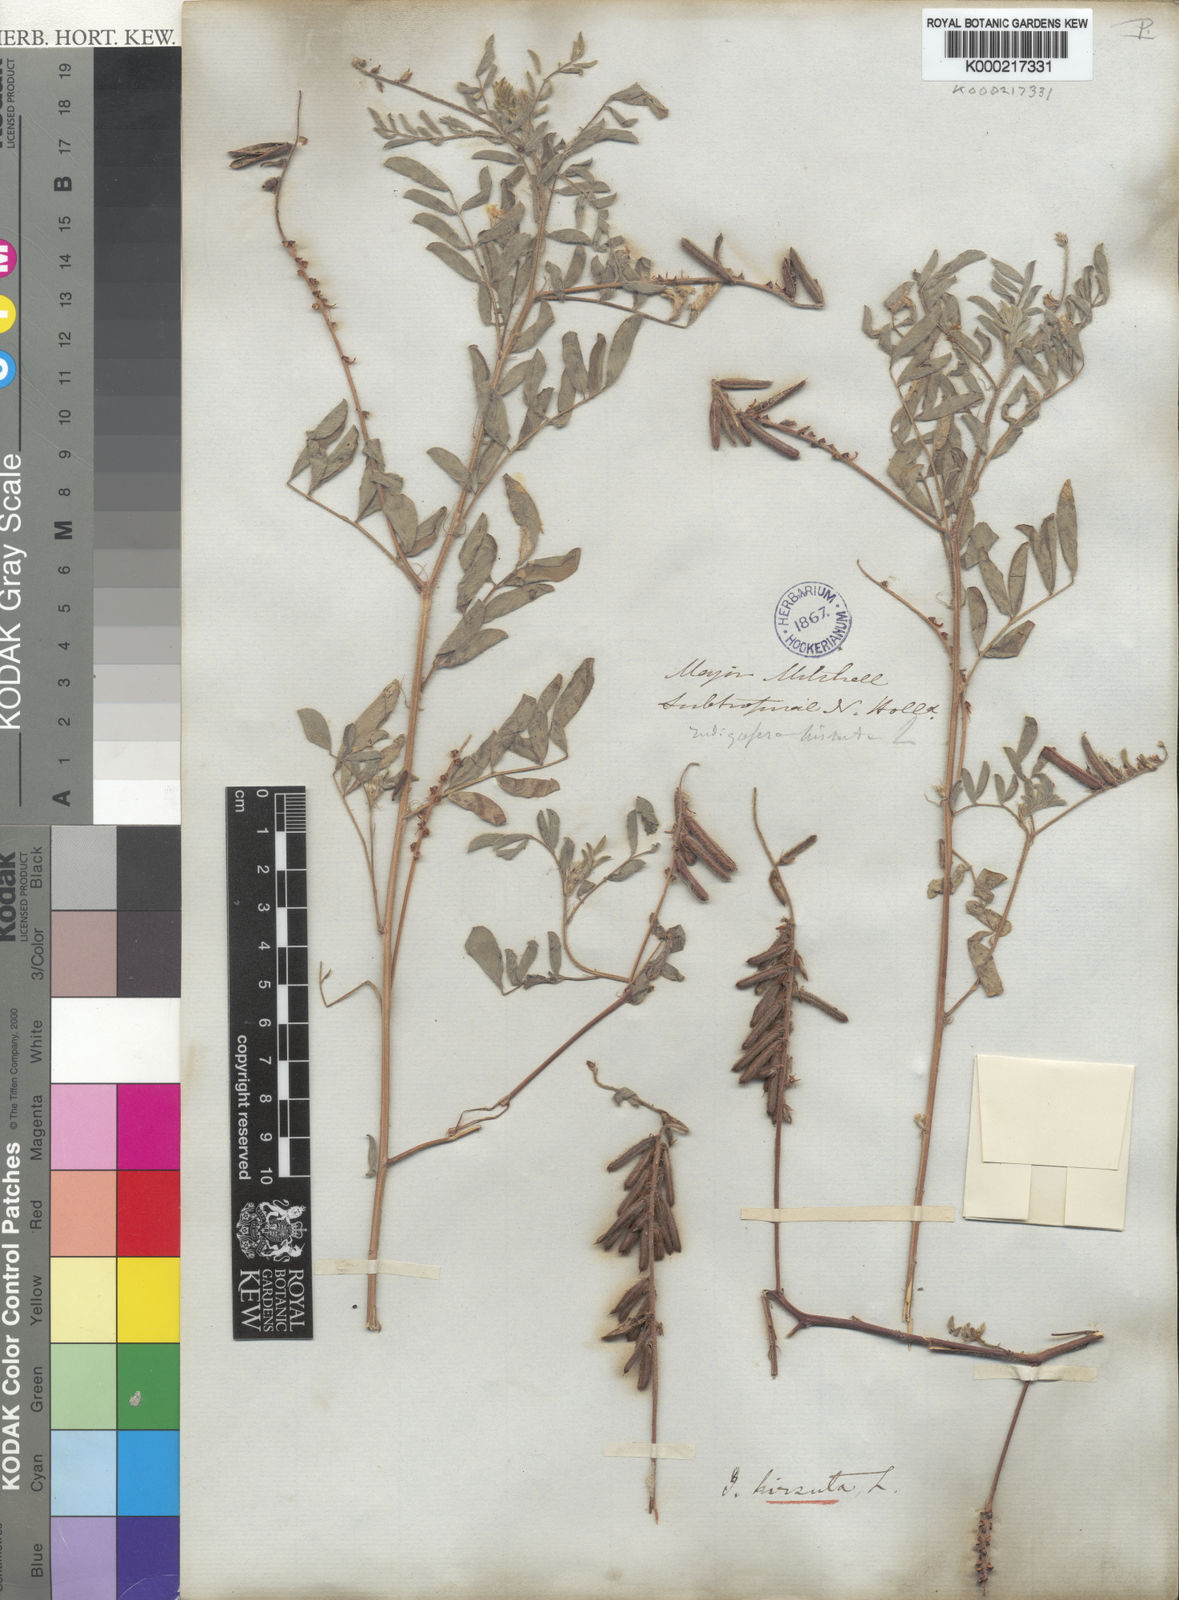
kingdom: Plantae
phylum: Tracheophyta
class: Magnoliopsida
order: Fabales
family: Fabaceae
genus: Indigofera
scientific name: Indigofera hirsuta
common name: Hairy indigo
